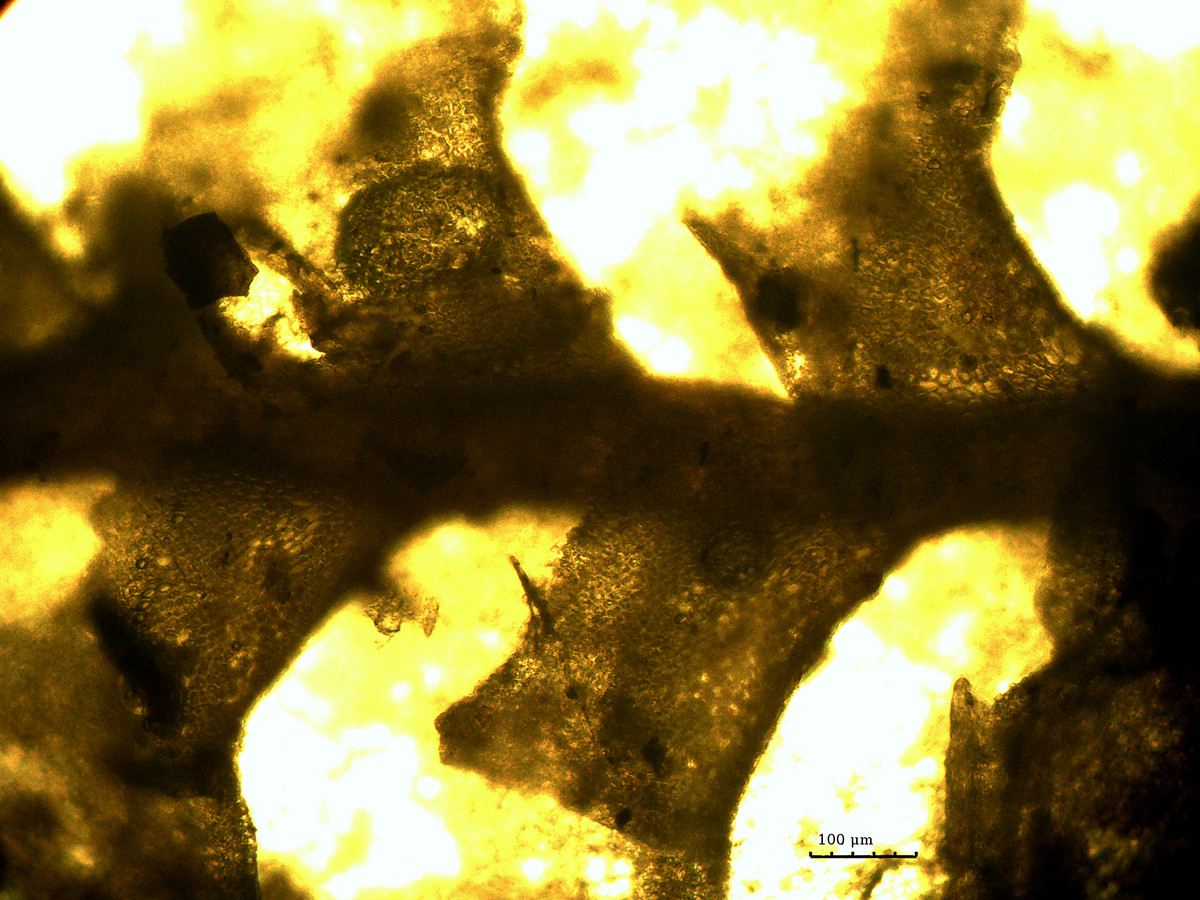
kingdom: Plantae
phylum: Marchantiophyta
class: Jungermanniopsida
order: Porellales
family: Radulaceae
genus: Radula
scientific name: Radula appressa
